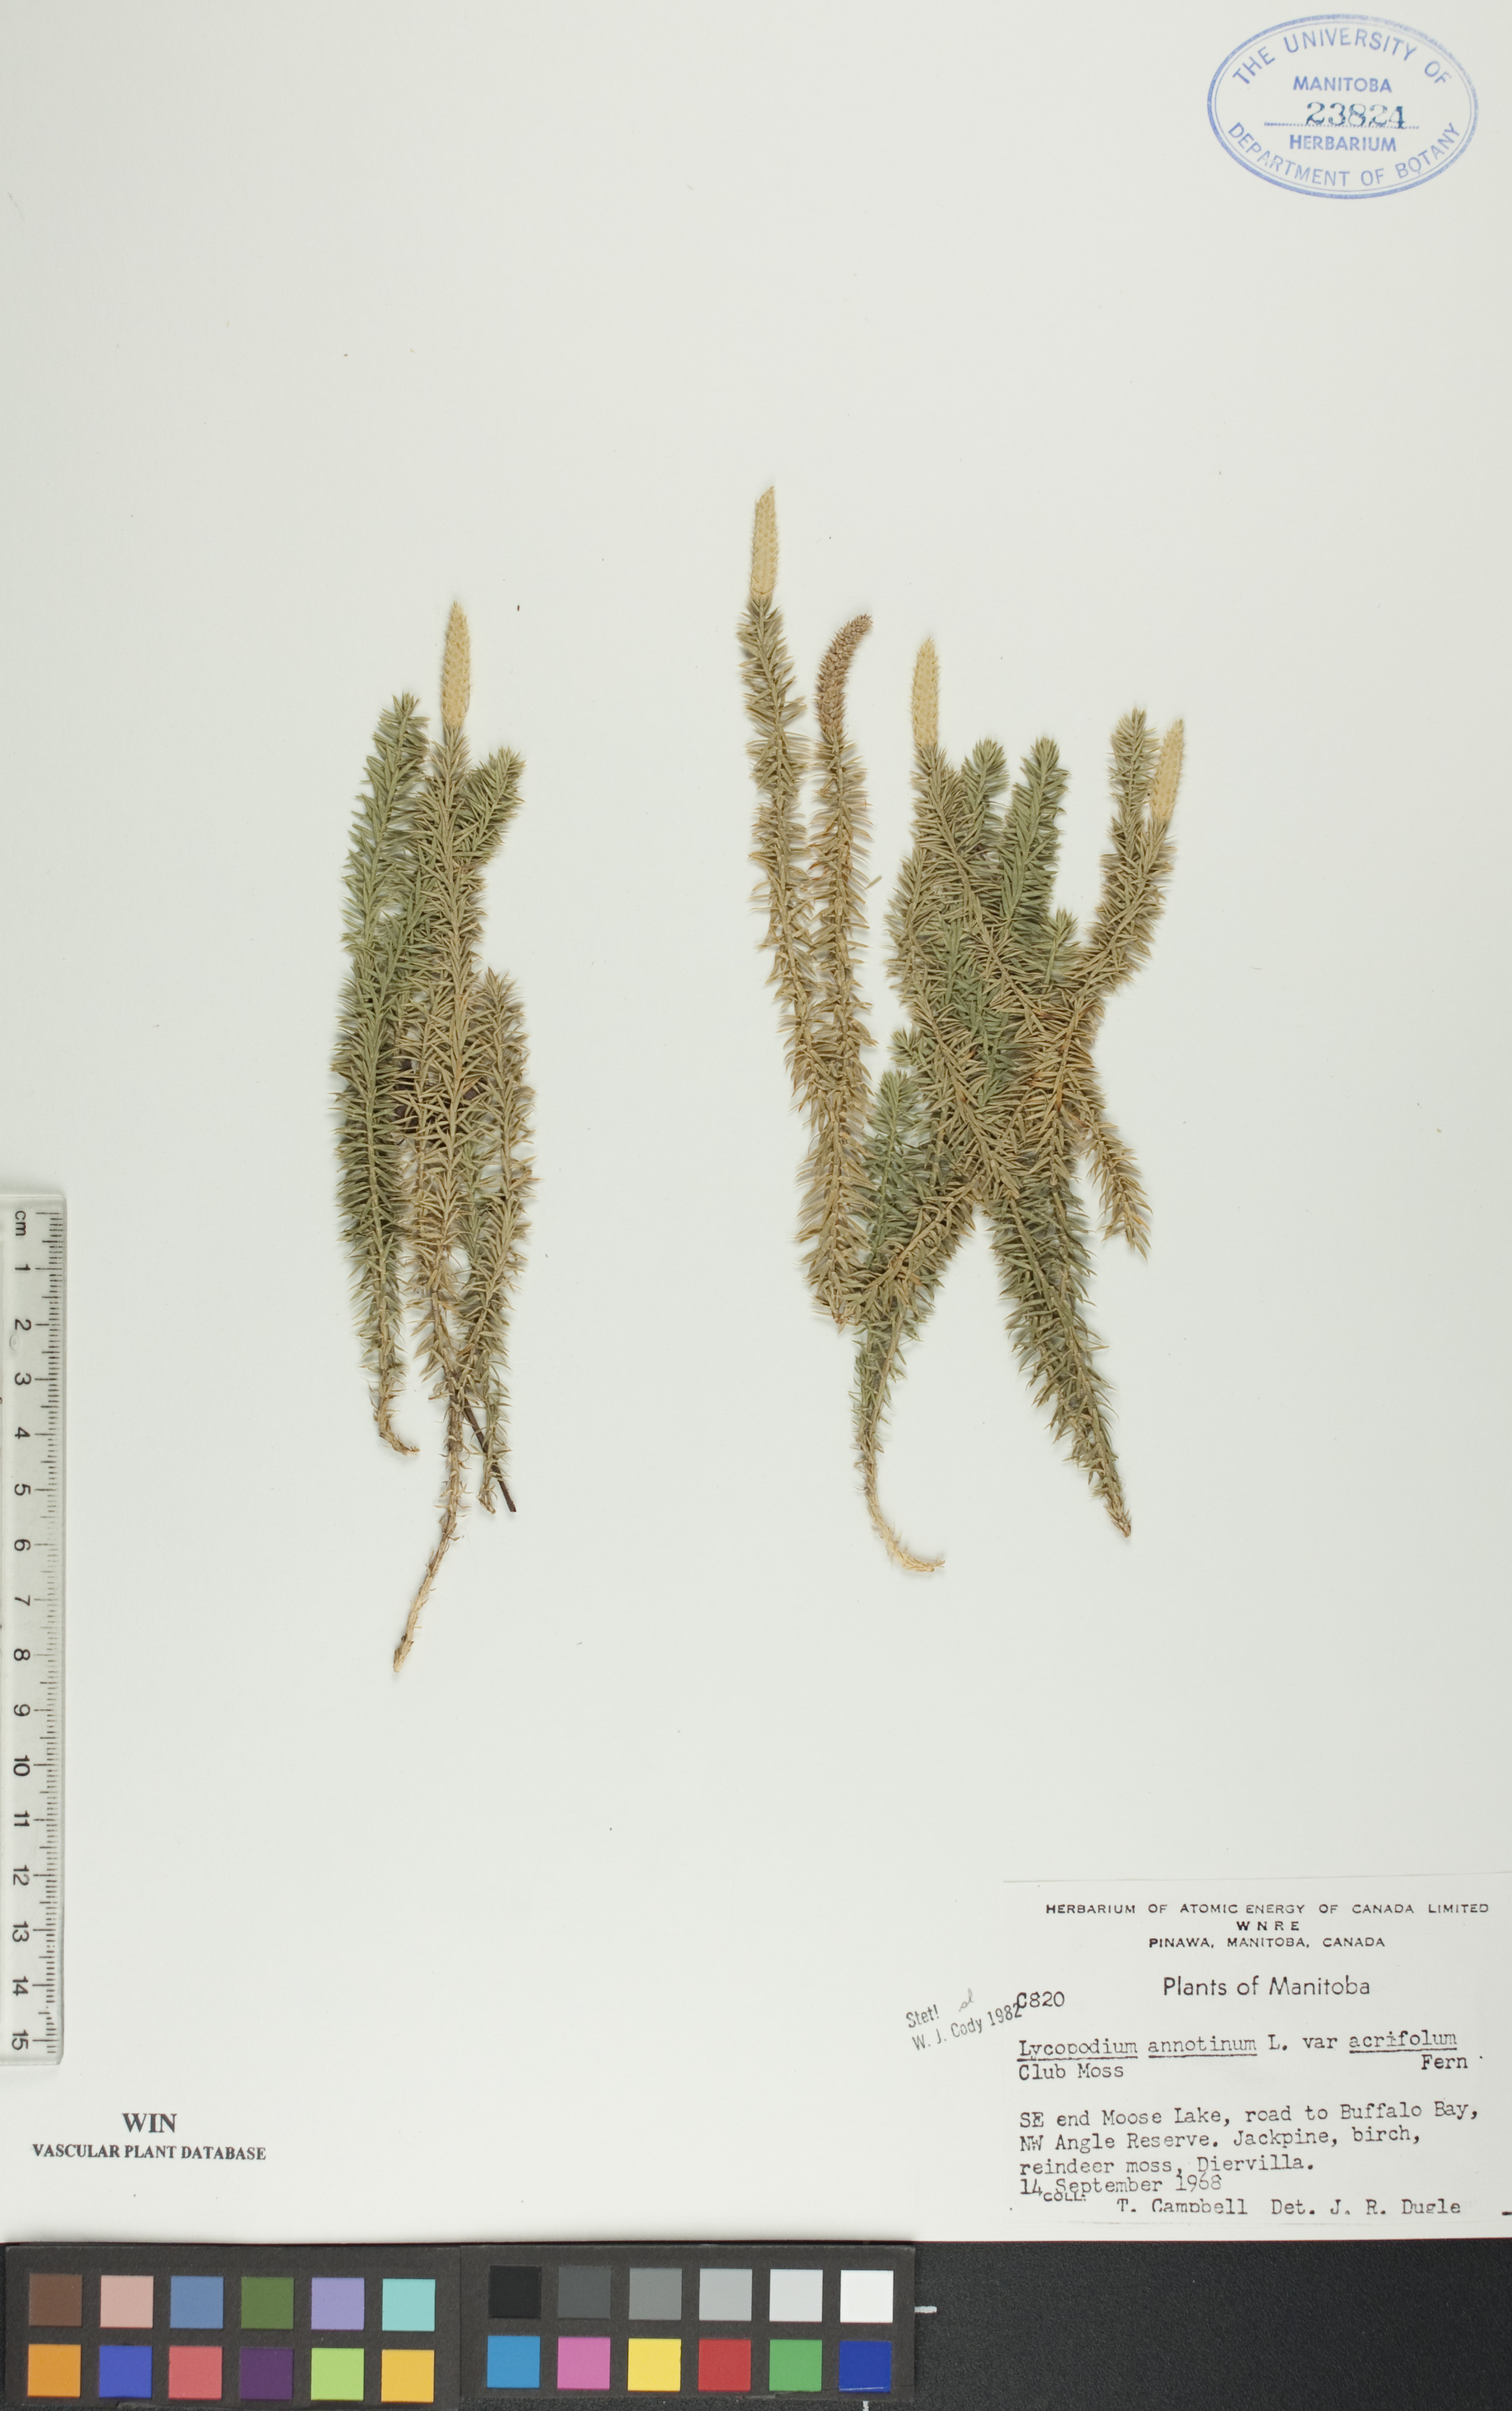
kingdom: Plantae
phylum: Tracheophyta
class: Lycopodiopsida
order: Lycopodiales
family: Lycopodiaceae
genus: Spinulum
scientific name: Spinulum annotinum
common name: Interrupted club-moss
